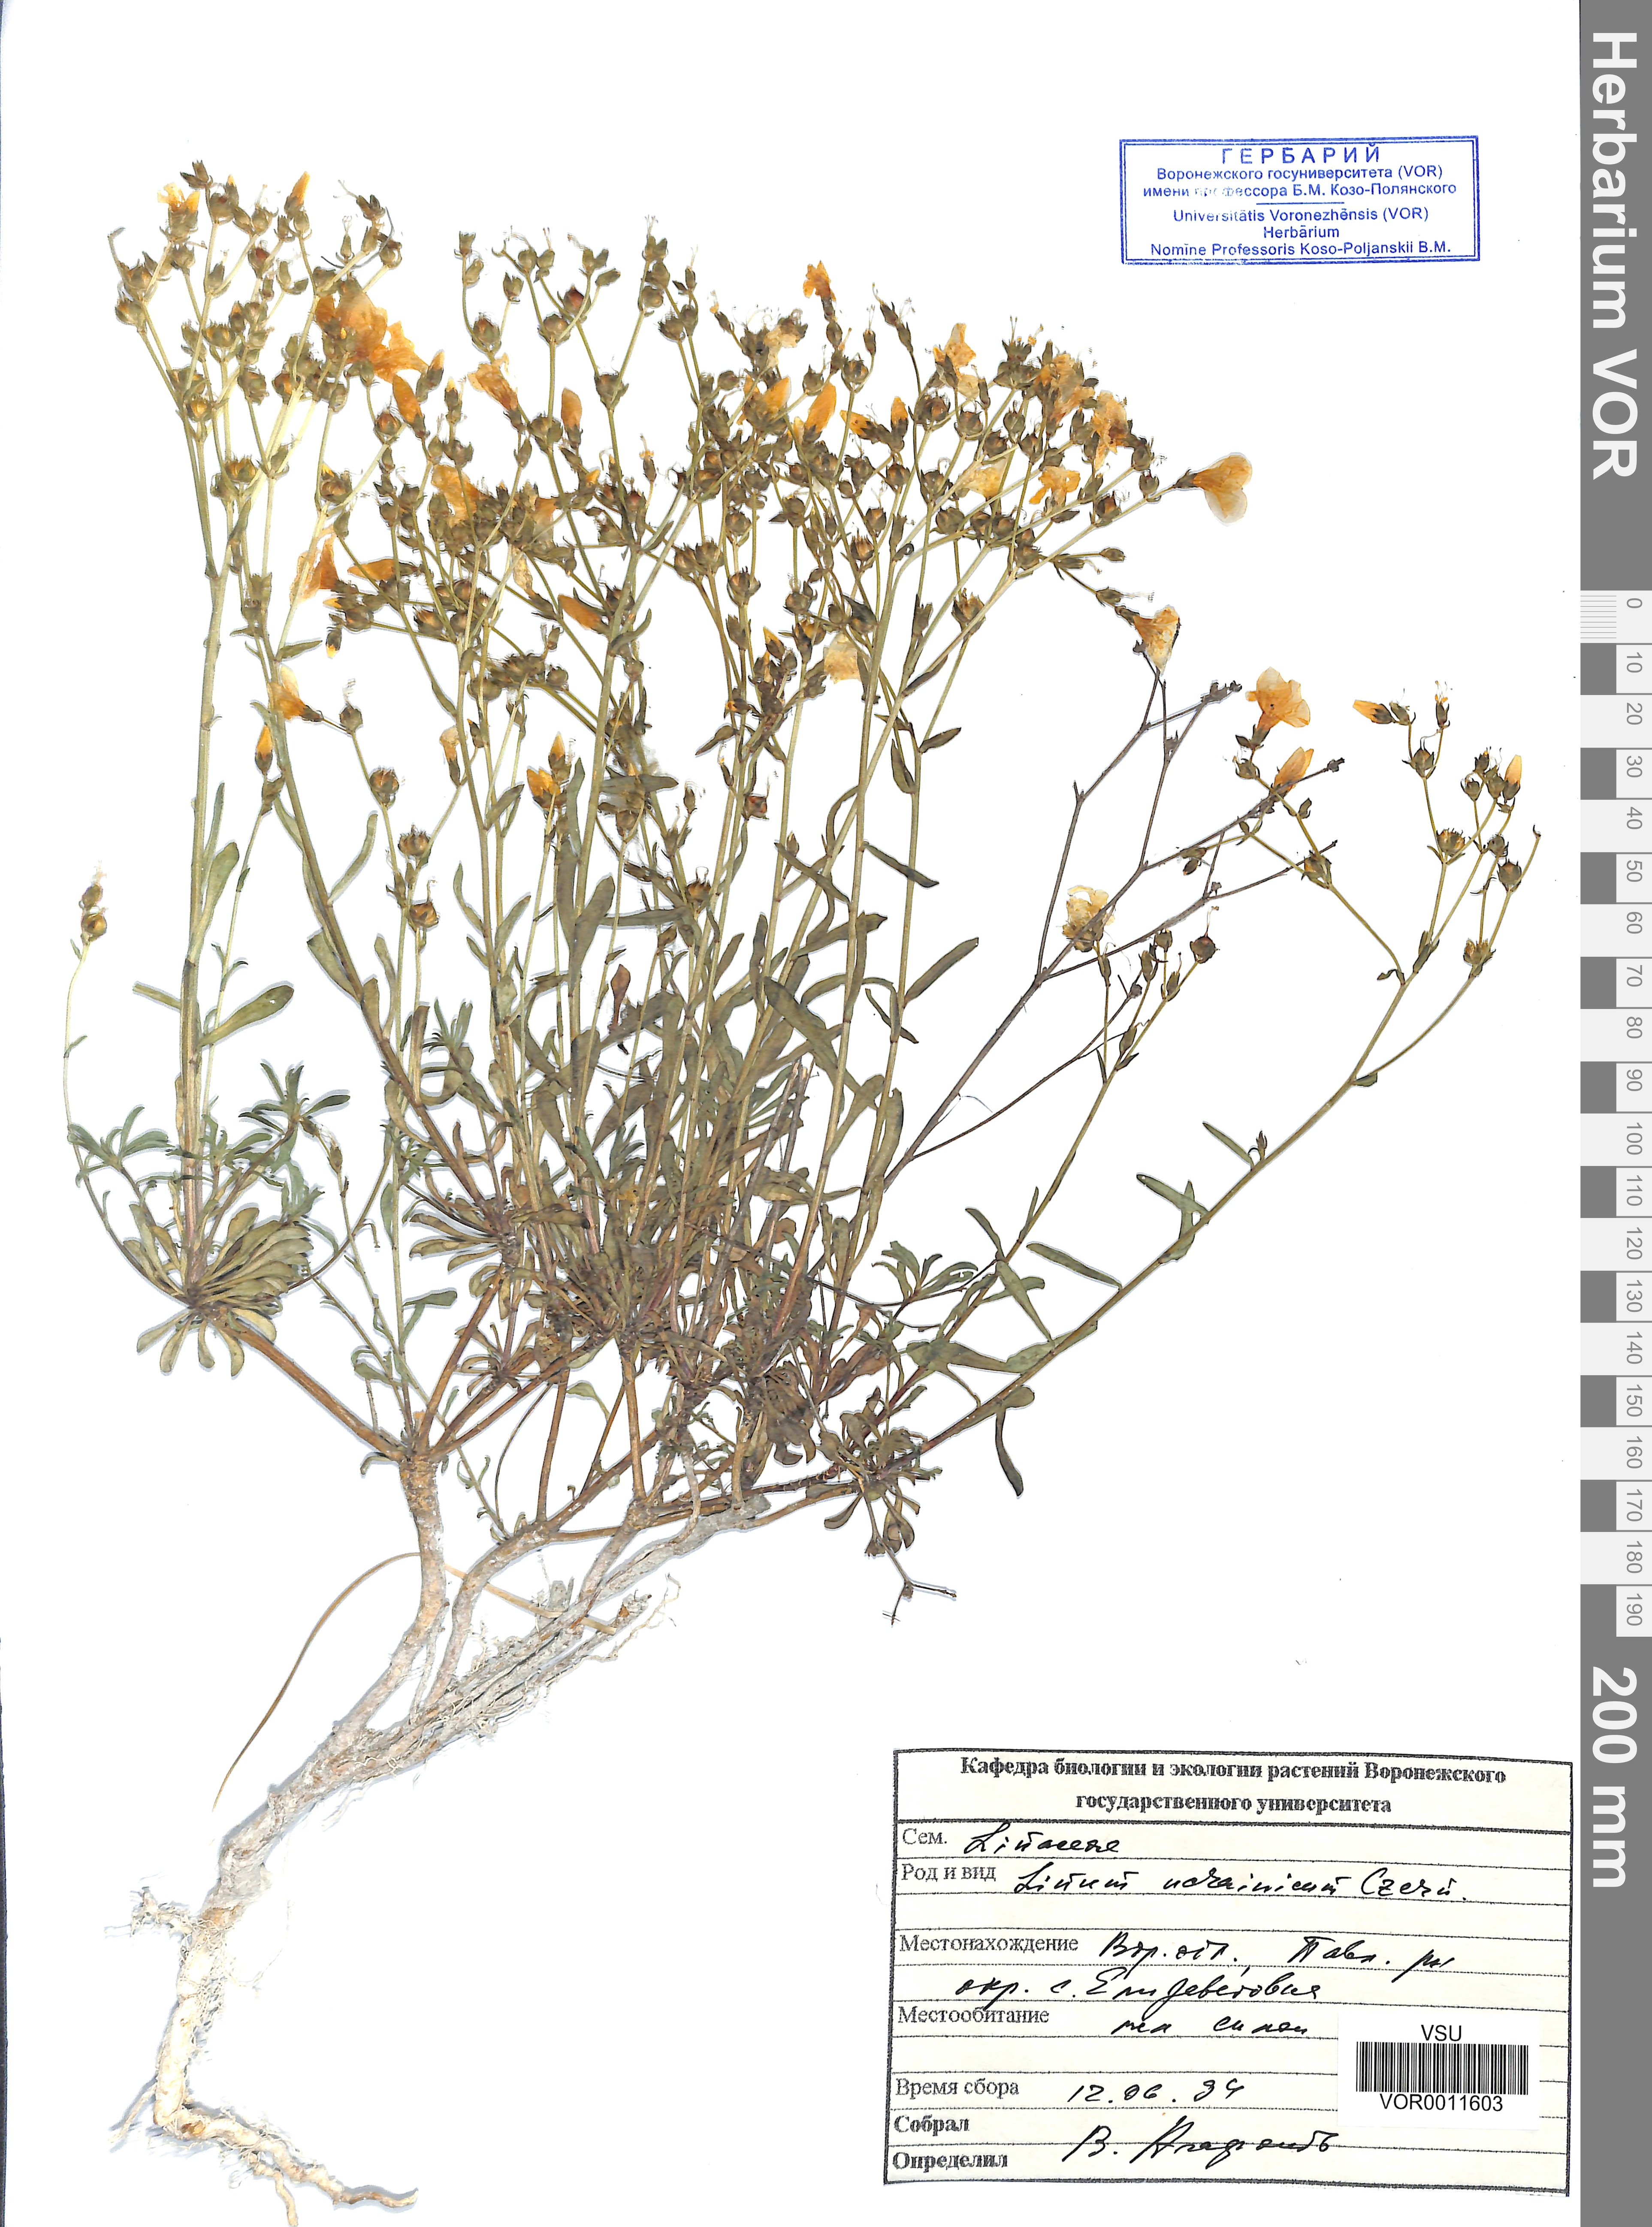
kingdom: Plantae
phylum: Tracheophyta
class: Magnoliopsida
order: Malpighiales
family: Linaceae
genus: Linum
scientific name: Linum ucranicum
